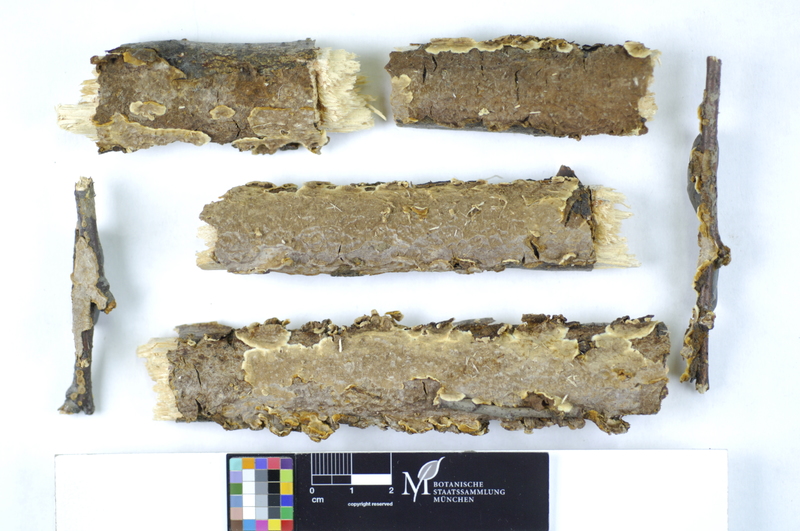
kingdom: Fungi
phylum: Basidiomycota
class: Agaricomycetes
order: Hymenochaetales
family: Hymenochaetaceae
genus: Hydnoporia
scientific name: Hydnoporia tabacina
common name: Willow glue
